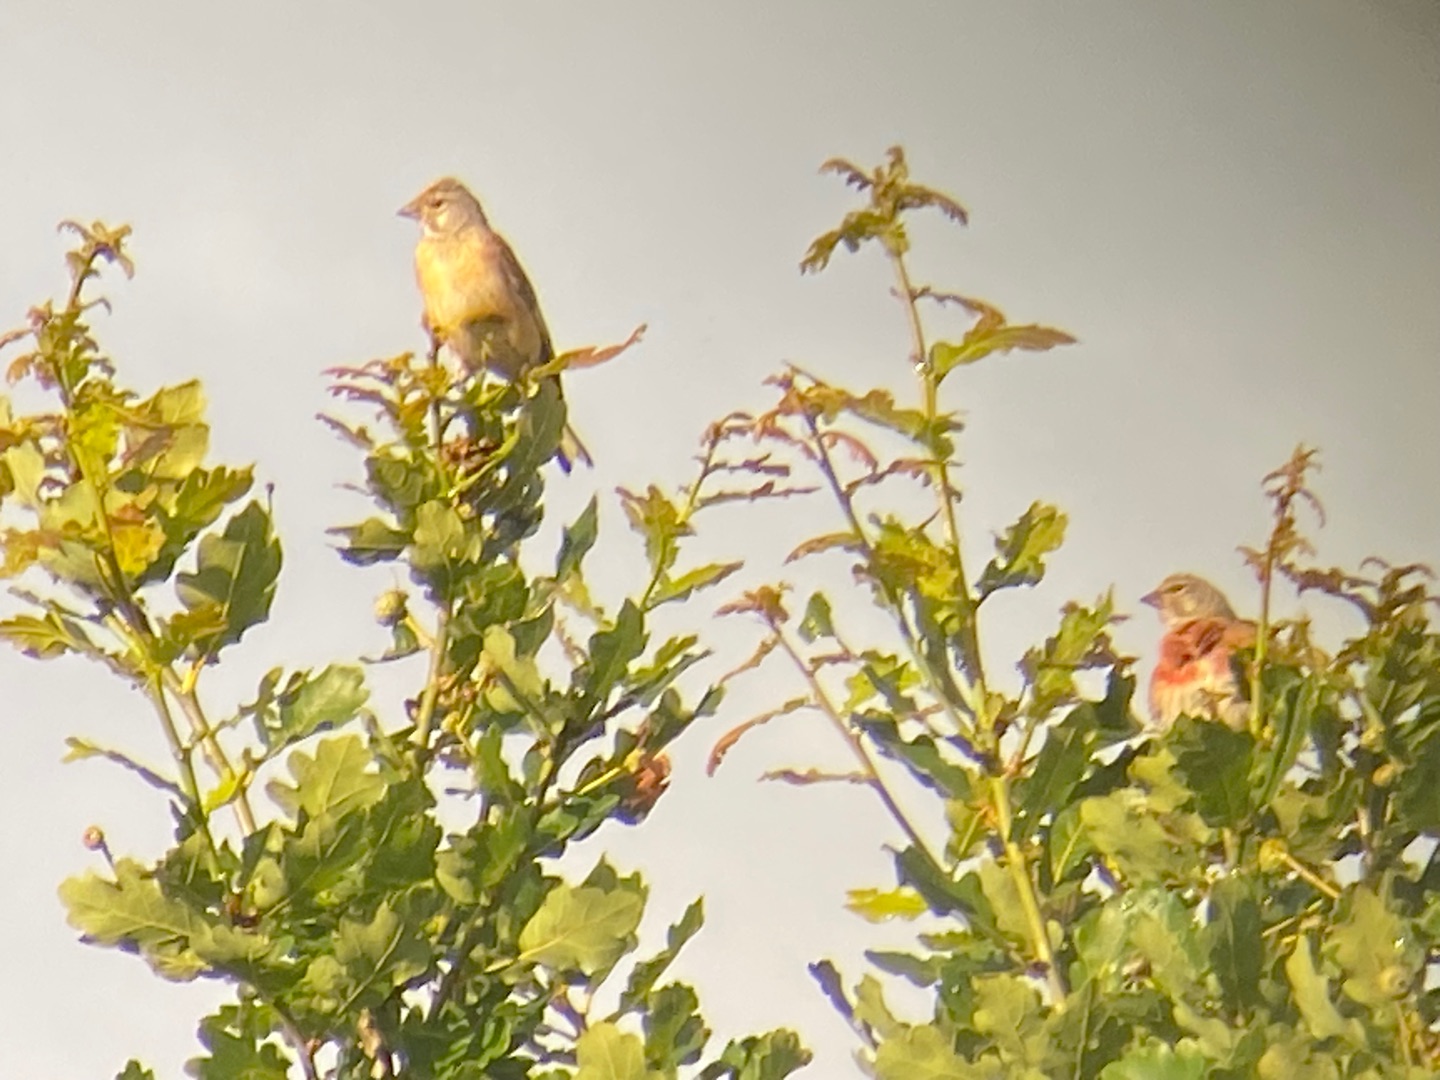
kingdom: Animalia
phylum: Chordata
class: Aves
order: Passeriformes
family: Fringillidae
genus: Linaria
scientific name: Linaria cannabina
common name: Tornirisk
